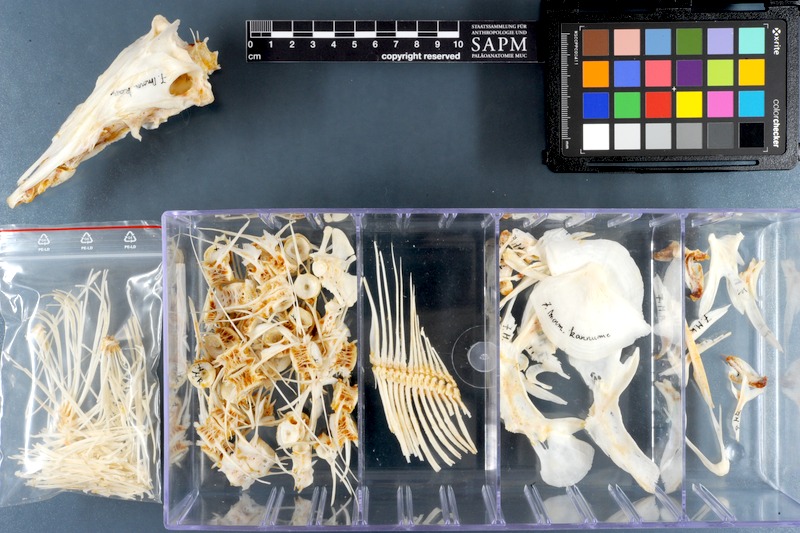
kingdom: Animalia
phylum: Chordata
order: Osteoglossiformes
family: Mormyridae
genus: Mormyrus
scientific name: Mormyrus kannume
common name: Elephant-snout fish
